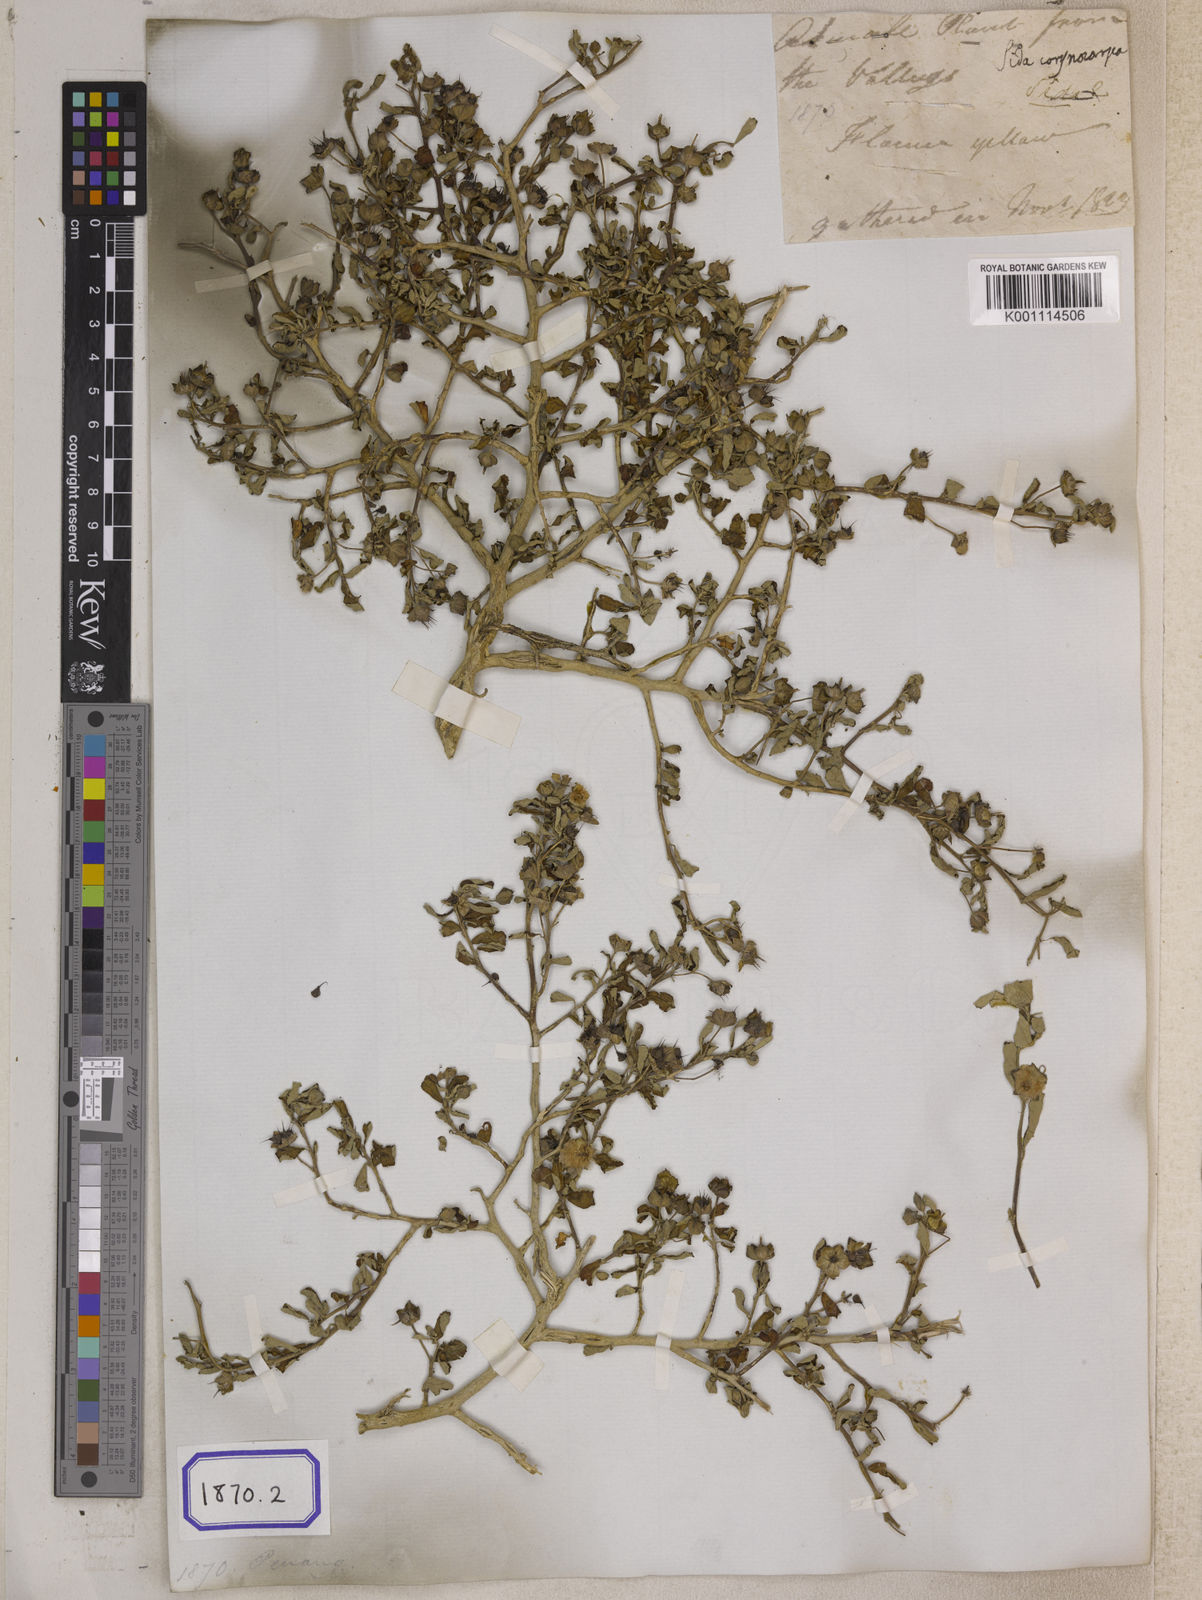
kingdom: Plantae
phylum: Tracheophyta
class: Magnoliopsida
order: Malvales
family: Malvaceae
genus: Sida
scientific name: Sida alnifolia
